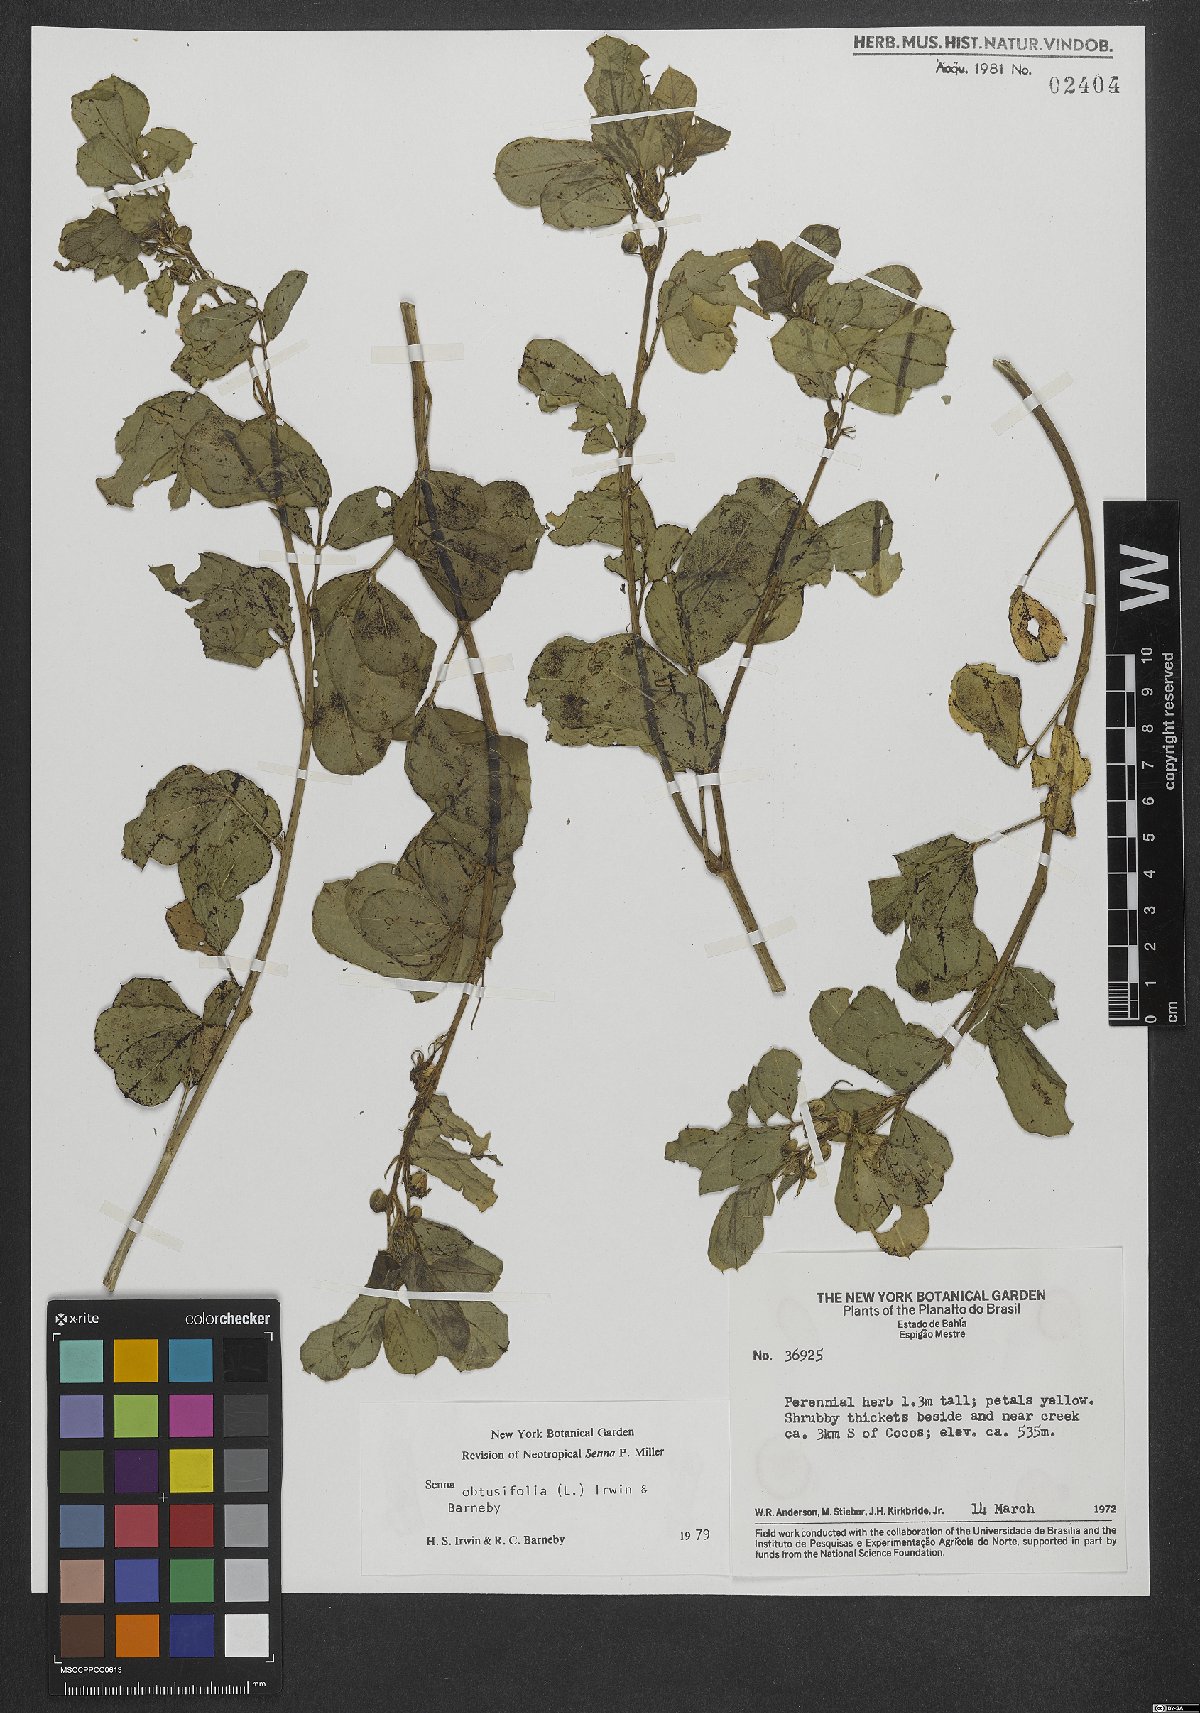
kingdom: Plantae
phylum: Tracheophyta
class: Magnoliopsida
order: Fabales
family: Fabaceae
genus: Senna
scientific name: Senna obtusifolia
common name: Java-bean
